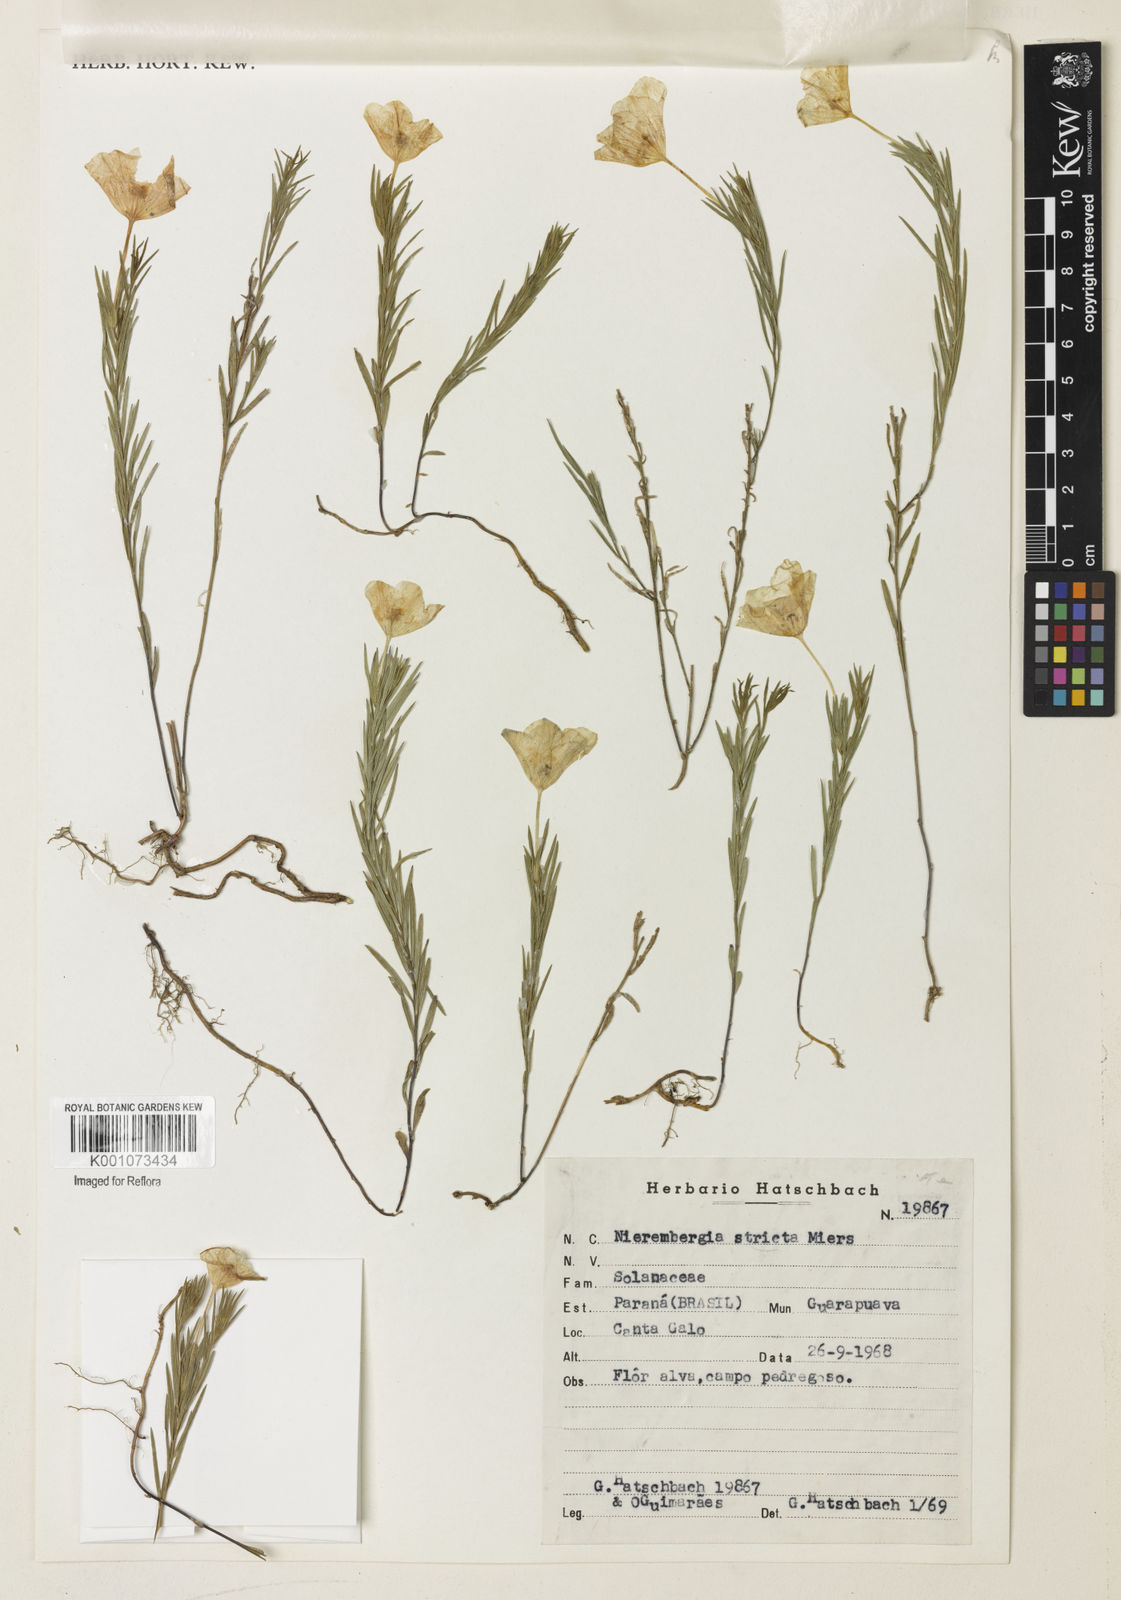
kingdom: Plantae
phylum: Tracheophyta
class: Magnoliopsida
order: Solanales
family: Solanaceae
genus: Nierembergia
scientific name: Nierembergia hatschbachii
